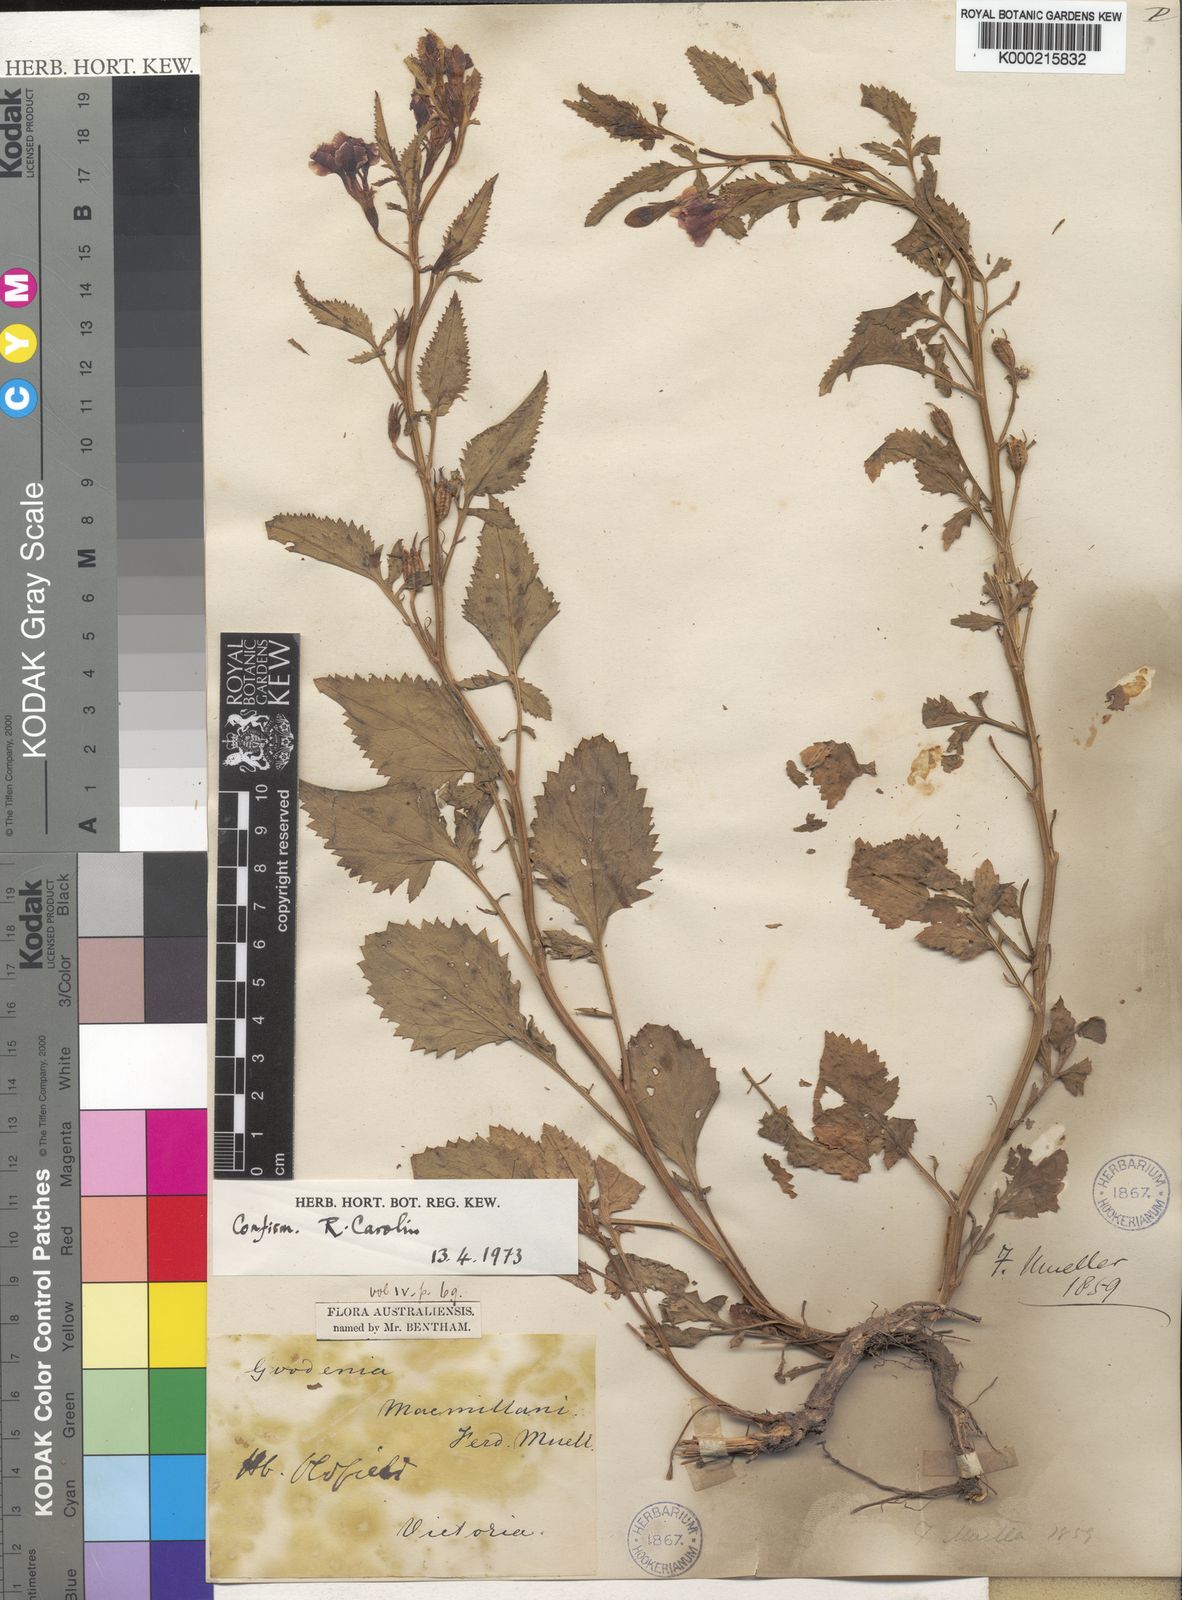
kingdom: Plantae
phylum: Tracheophyta
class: Magnoliopsida
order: Asterales
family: Goodeniaceae
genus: Goodenia
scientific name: Goodenia macmillanii
